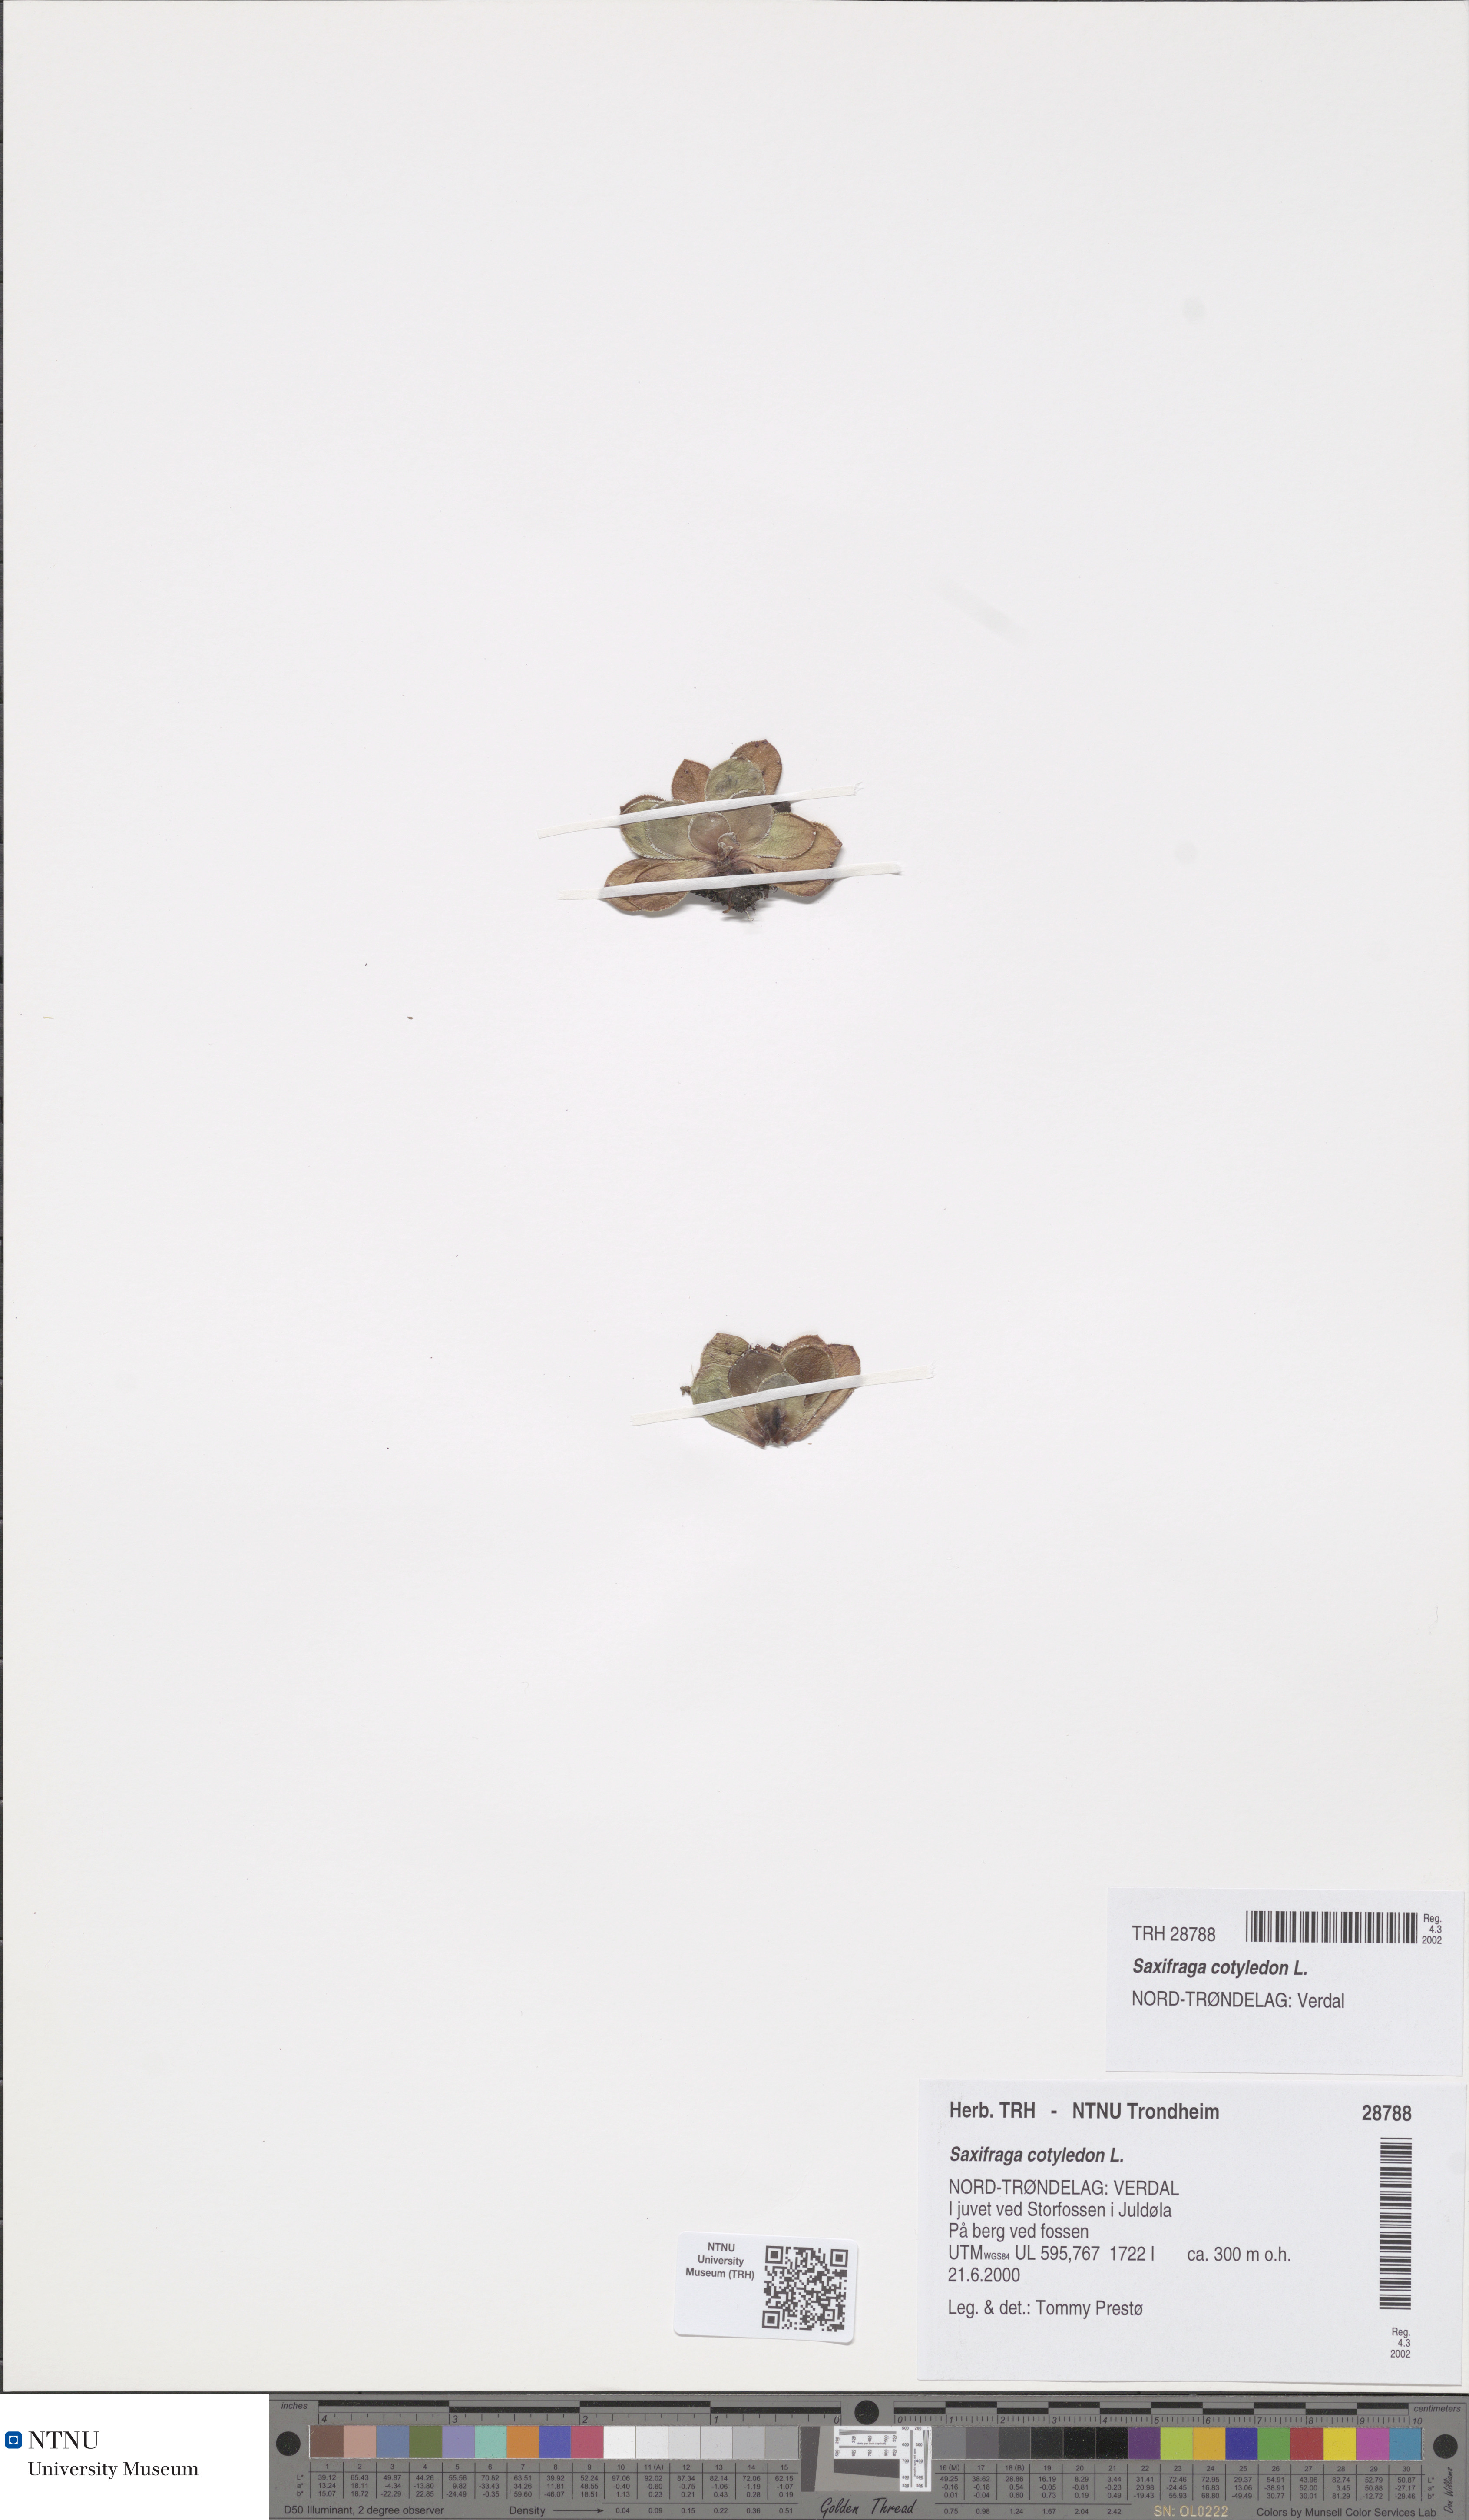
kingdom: Plantae
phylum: Tracheophyta
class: Magnoliopsida
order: Saxifragales
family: Saxifragaceae
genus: Saxifraga
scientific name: Saxifraga cotyledon
